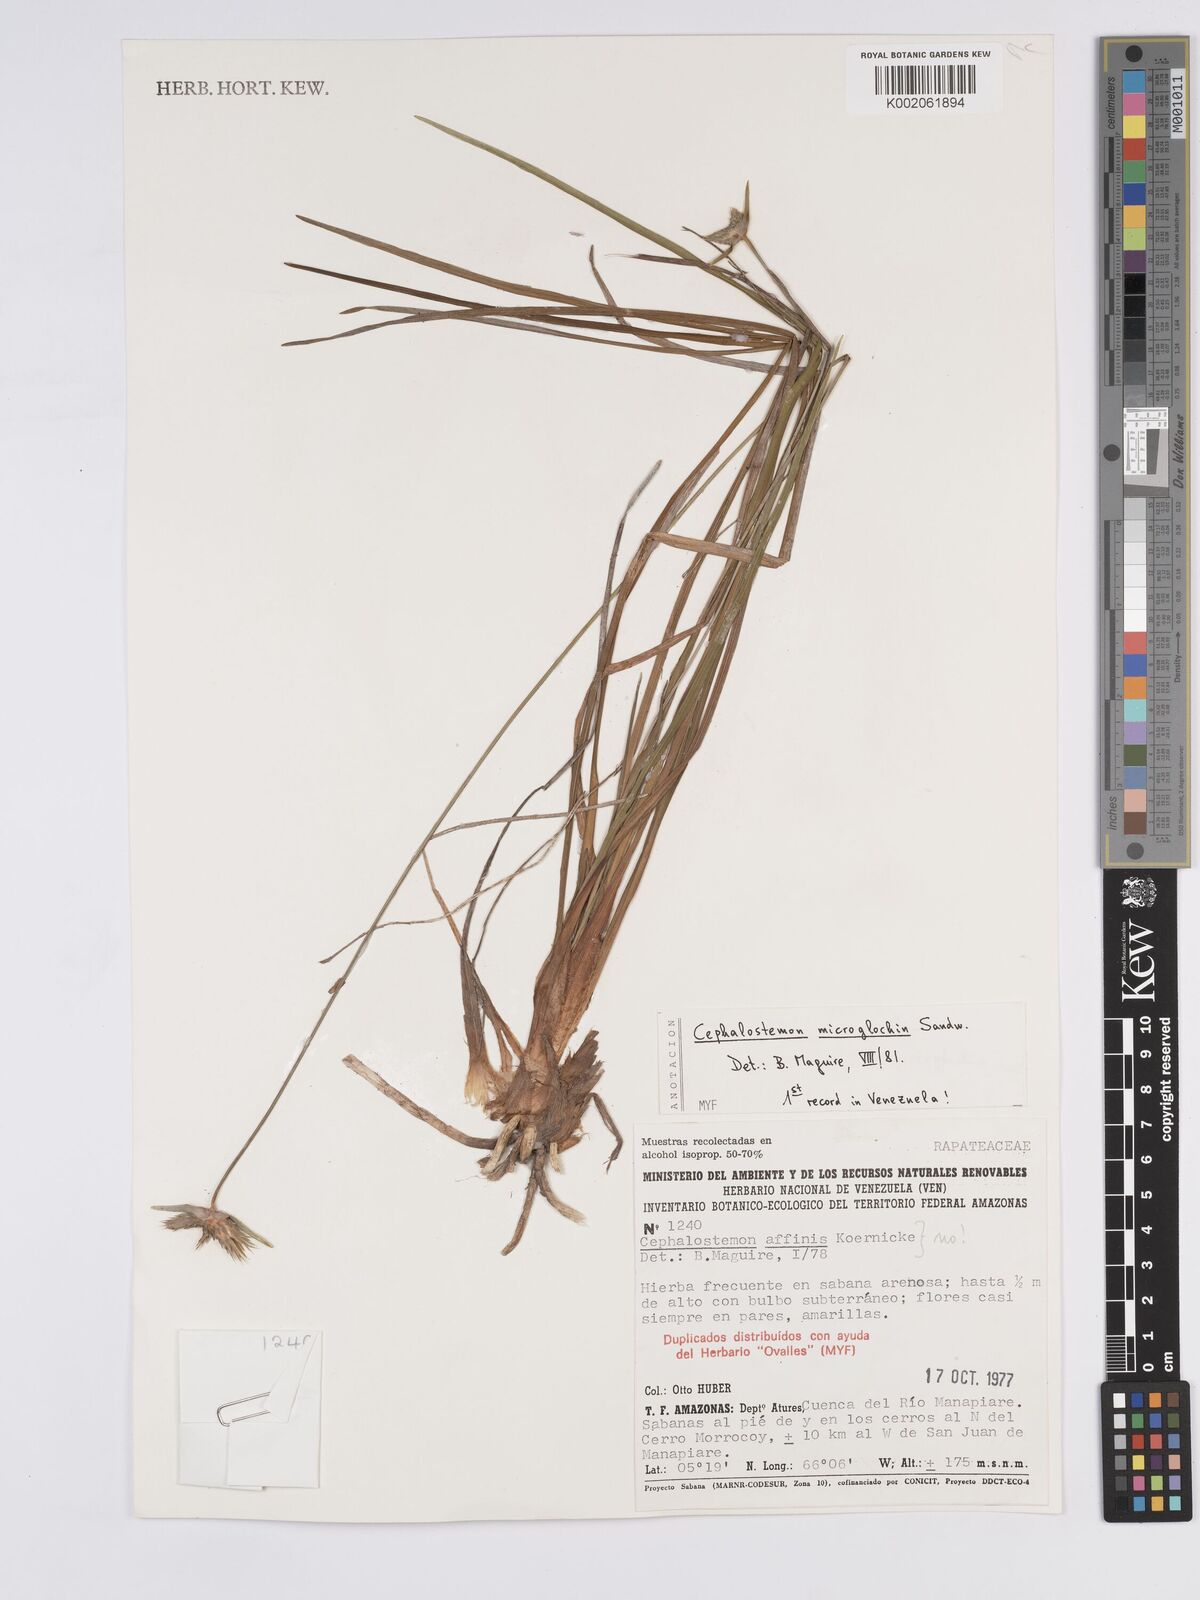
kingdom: Plantae
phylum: Tracheophyta
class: Liliopsida
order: Poales
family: Rapateaceae
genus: Cephalostemon
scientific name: Cephalostemon microglochin
